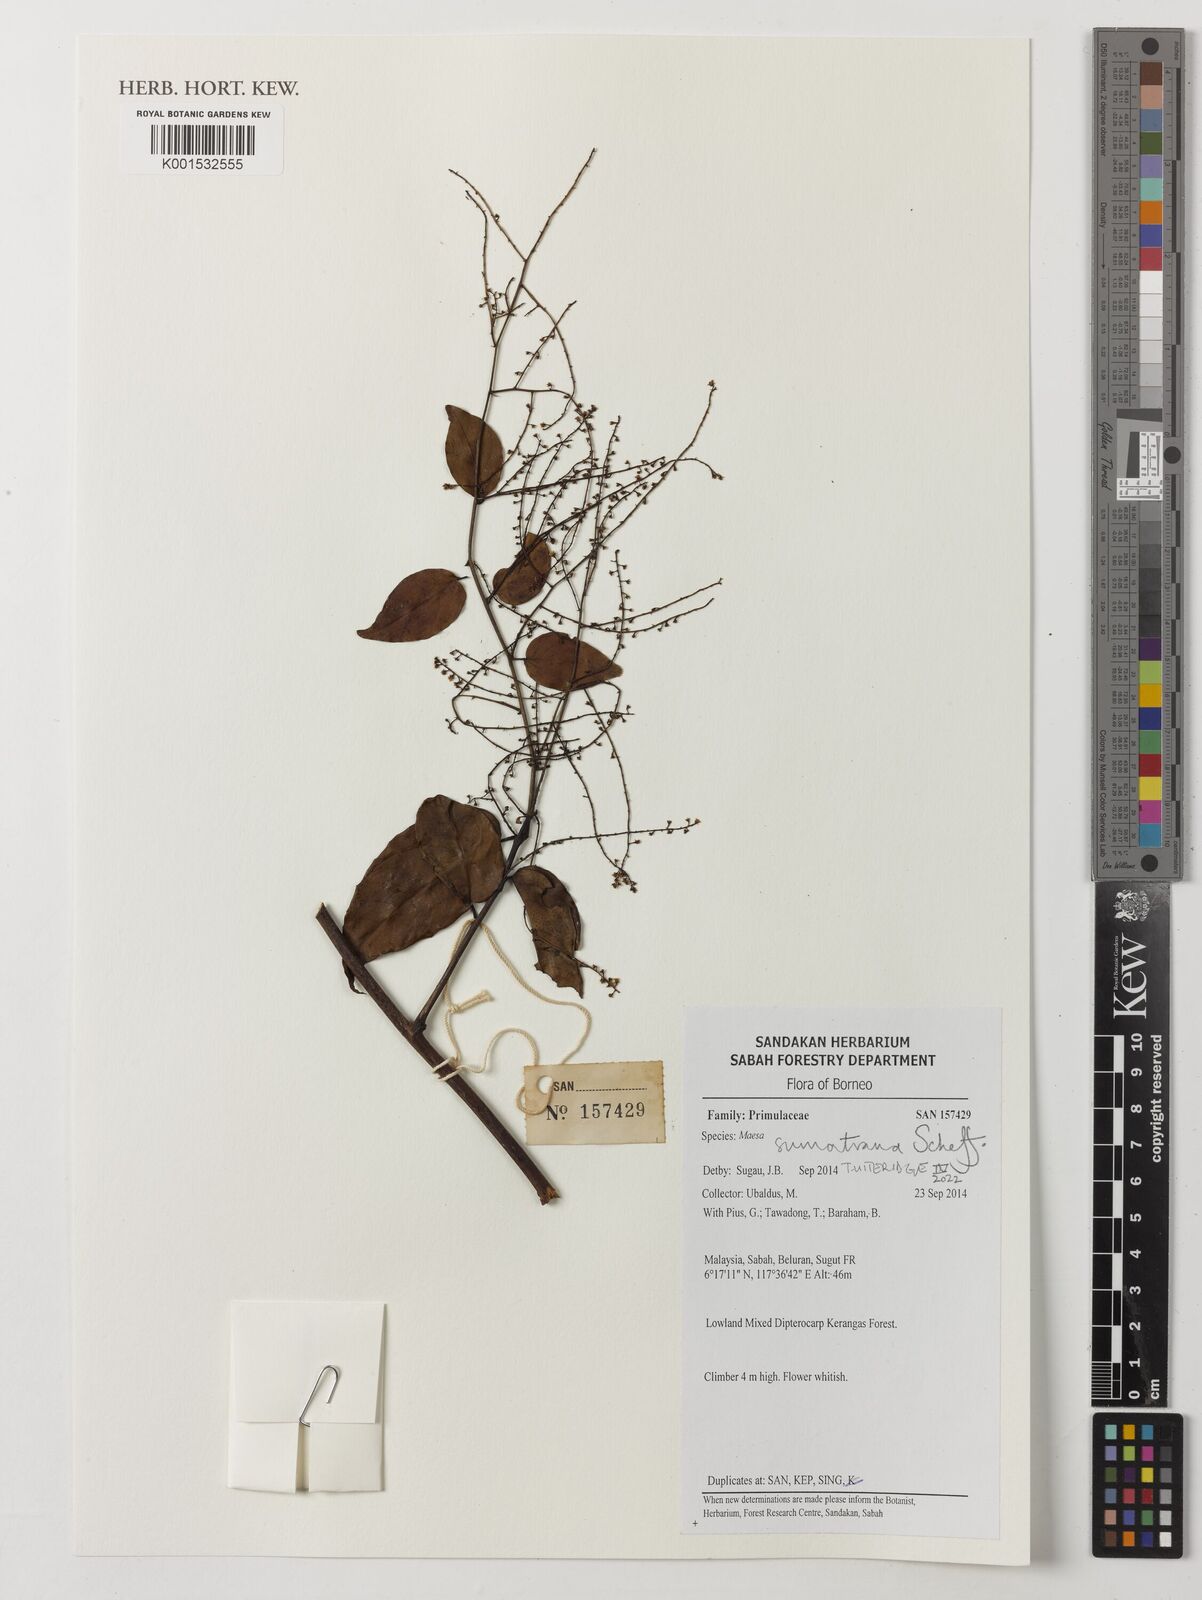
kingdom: Plantae
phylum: Tracheophyta
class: Magnoliopsida
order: Ericales
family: Primulaceae
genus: Maesa
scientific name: Maesa sumatrana
